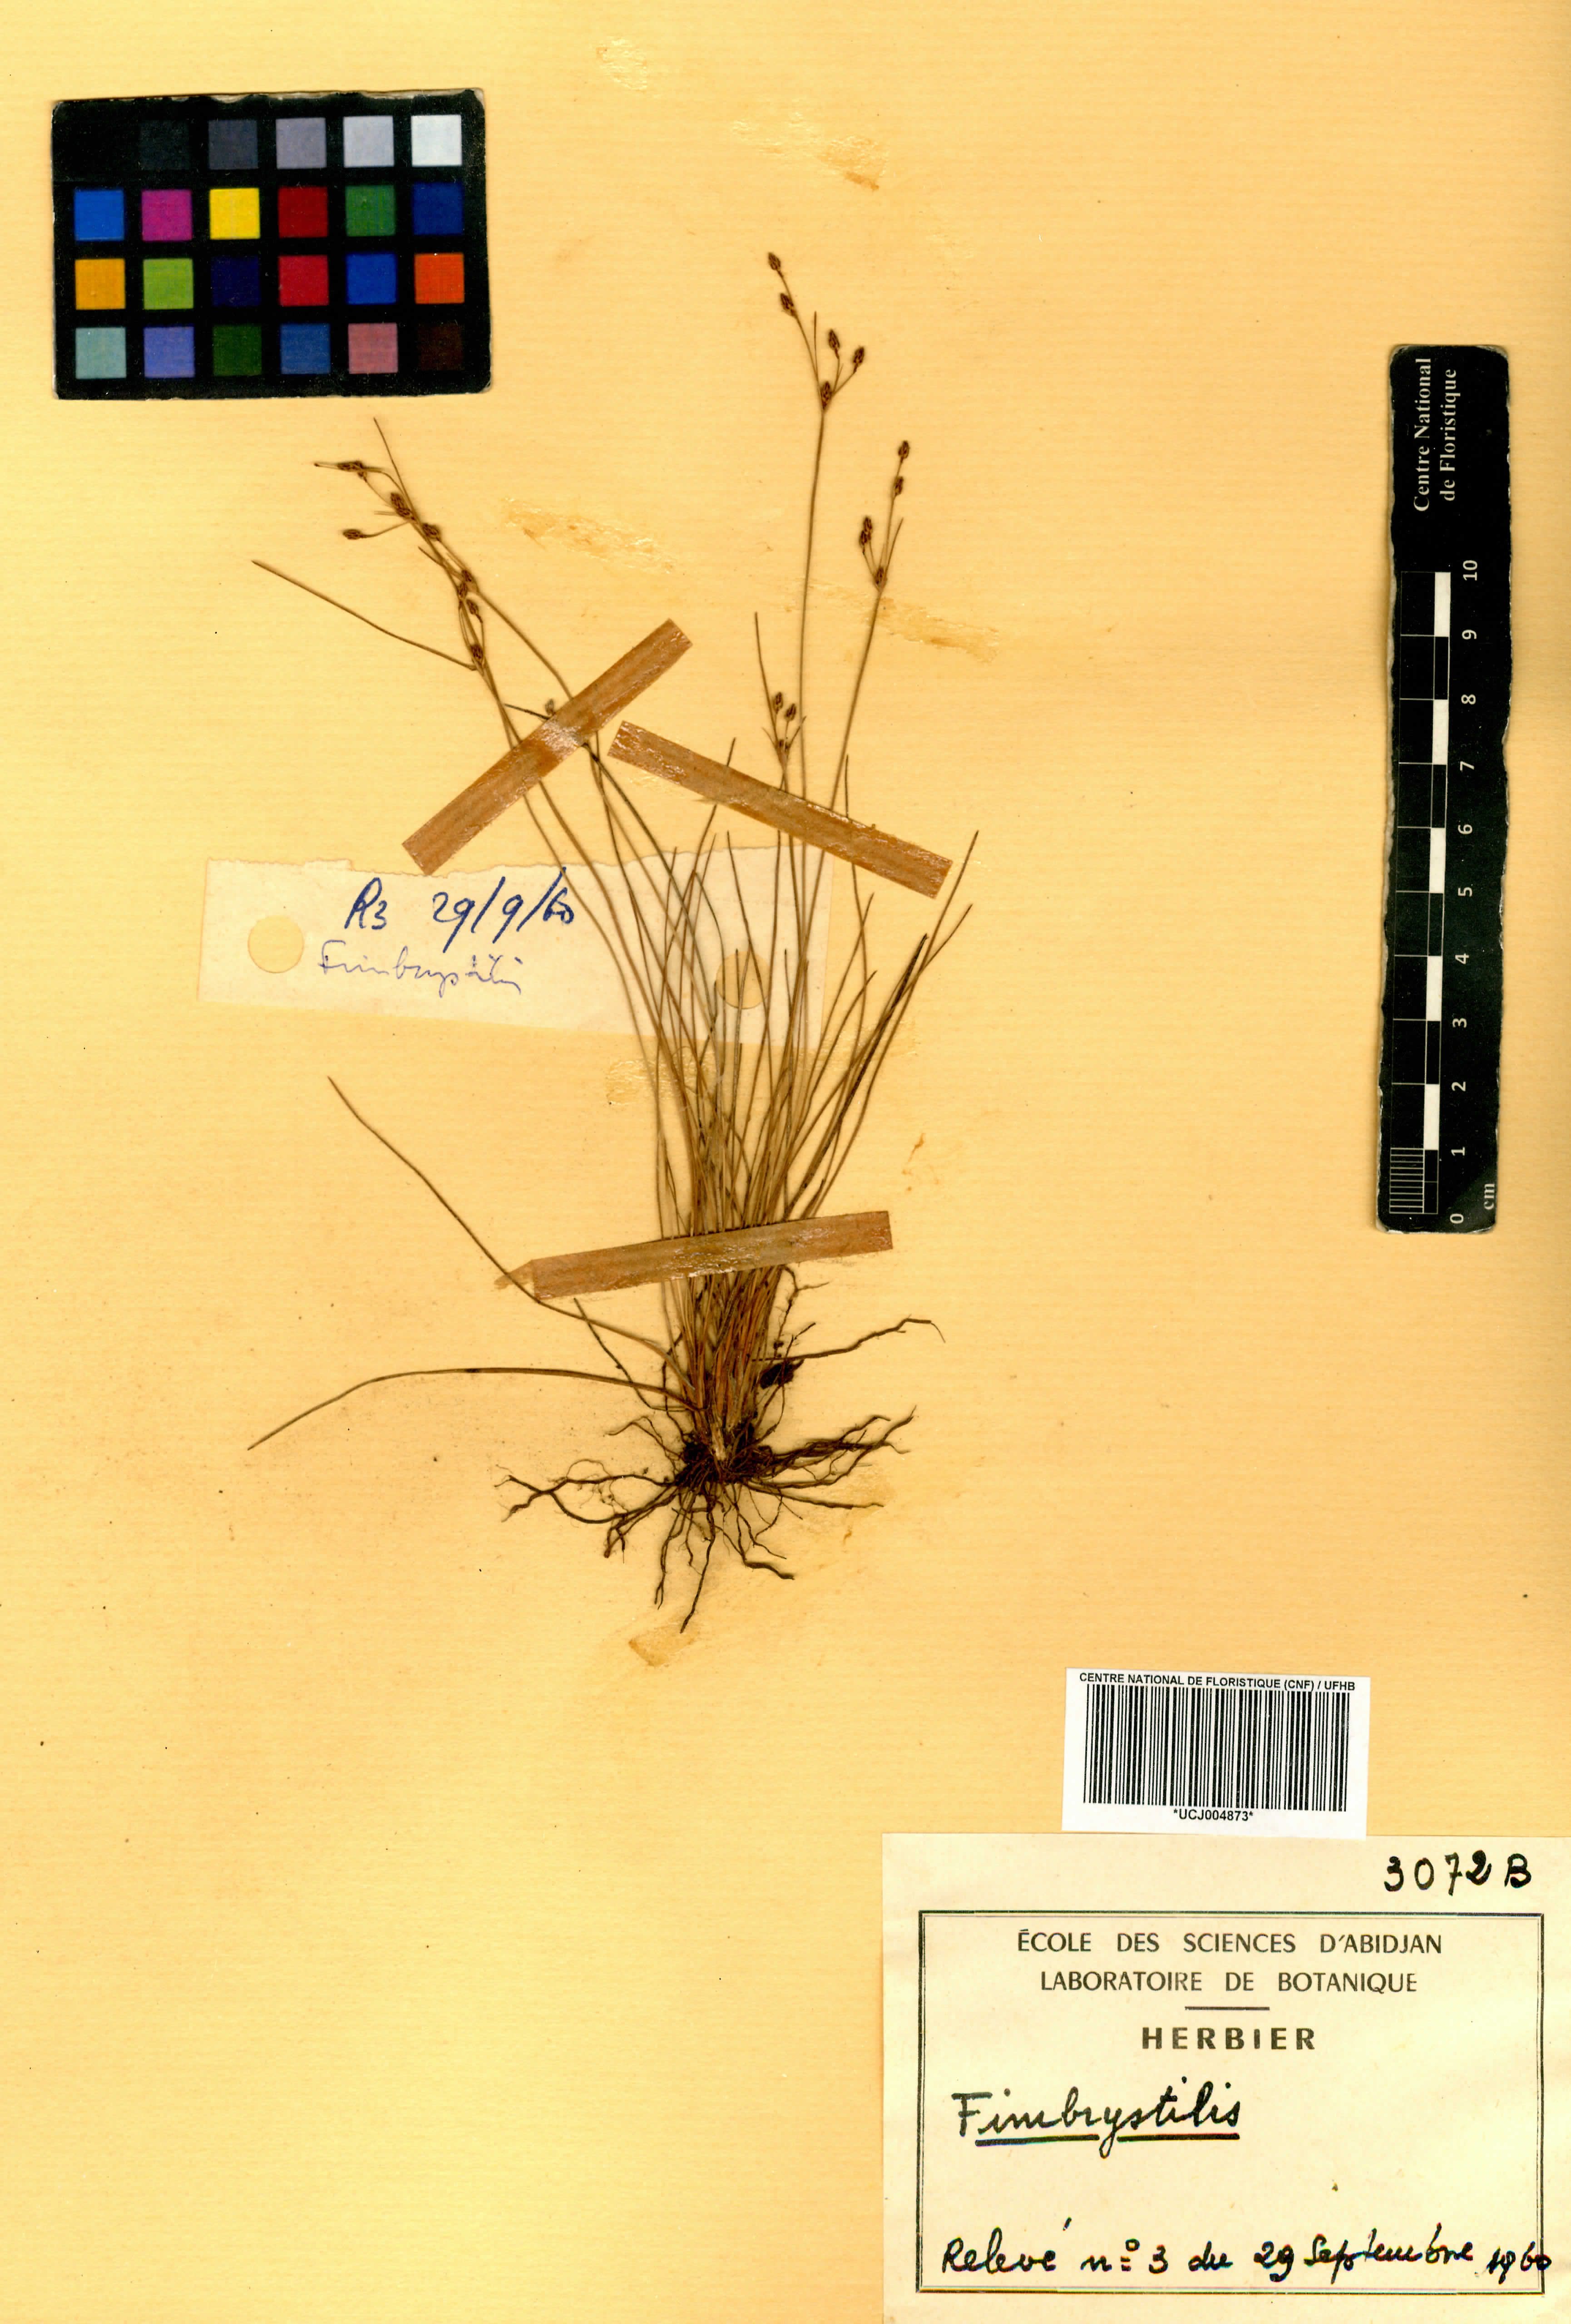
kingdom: Plantae
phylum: Tracheophyta
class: Liliopsida
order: Poales
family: Cyperaceae
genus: Fimbristylis
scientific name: Fimbristylis
